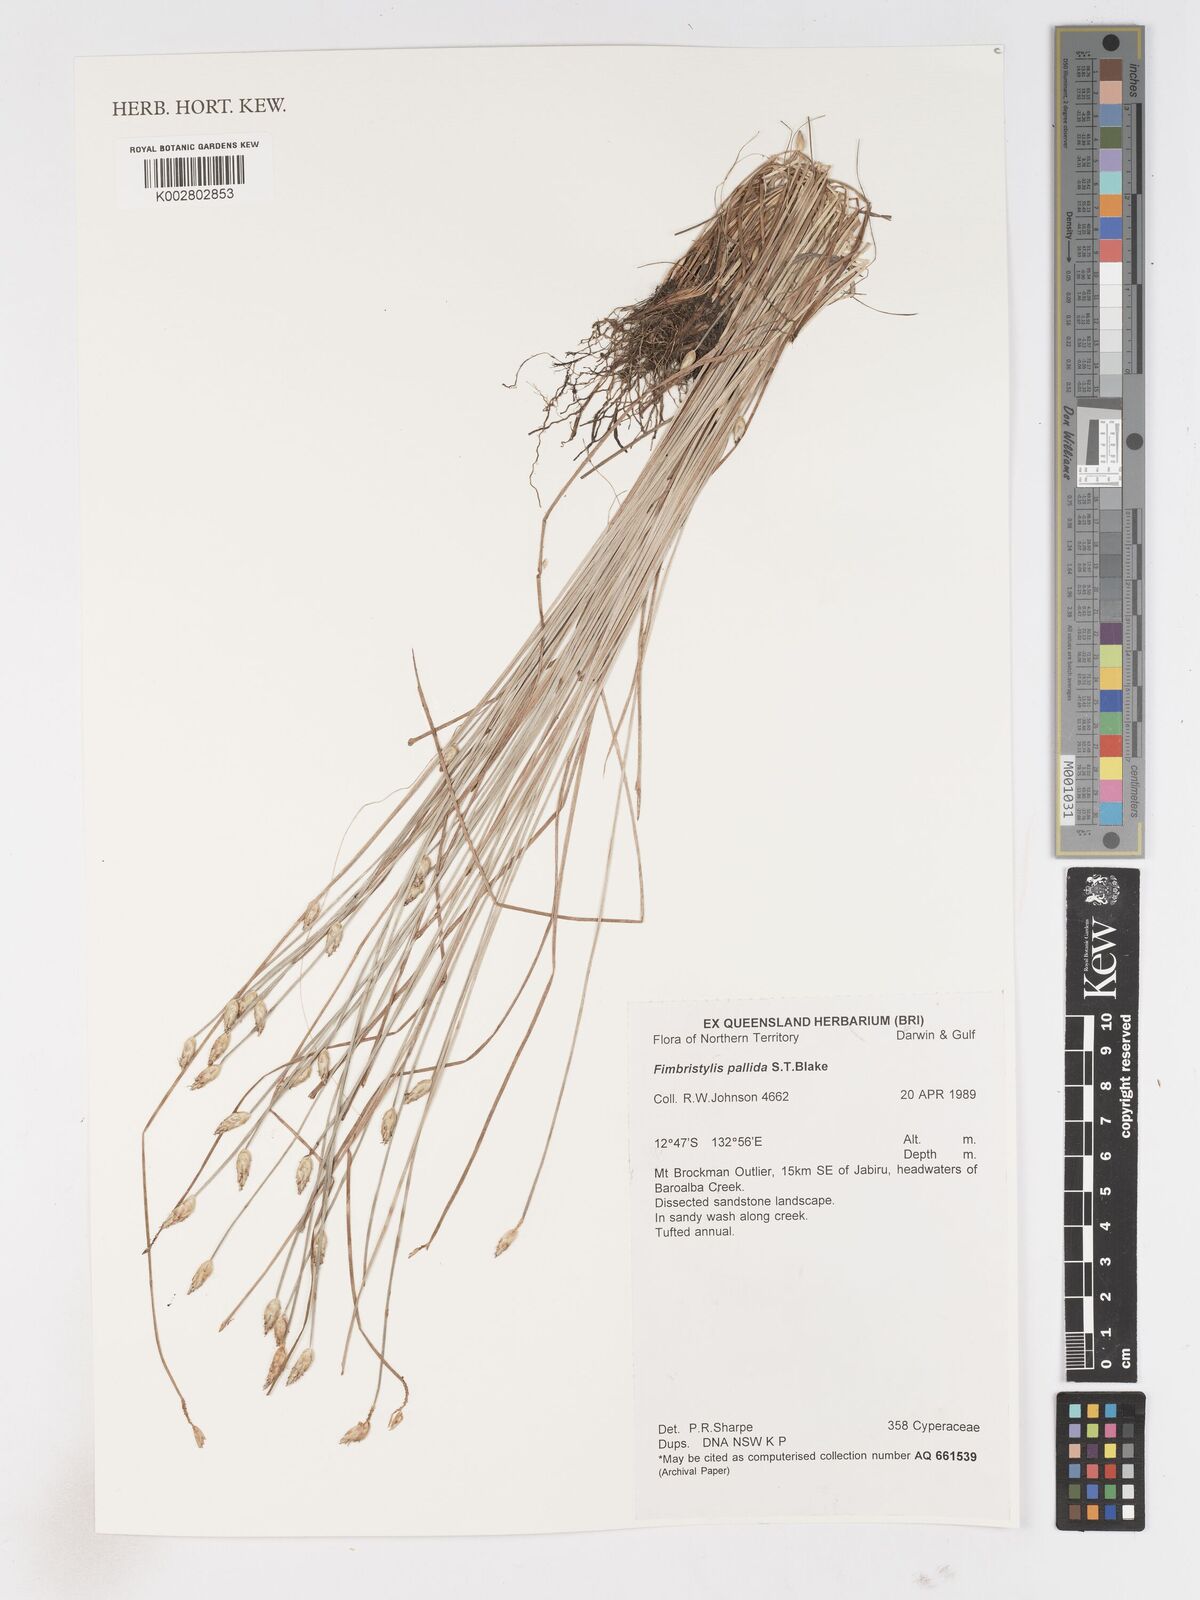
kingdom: Plantae
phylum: Tracheophyta
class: Liliopsida
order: Poales
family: Cyperaceae
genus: Fimbristylis
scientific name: Fimbristylis pallida
